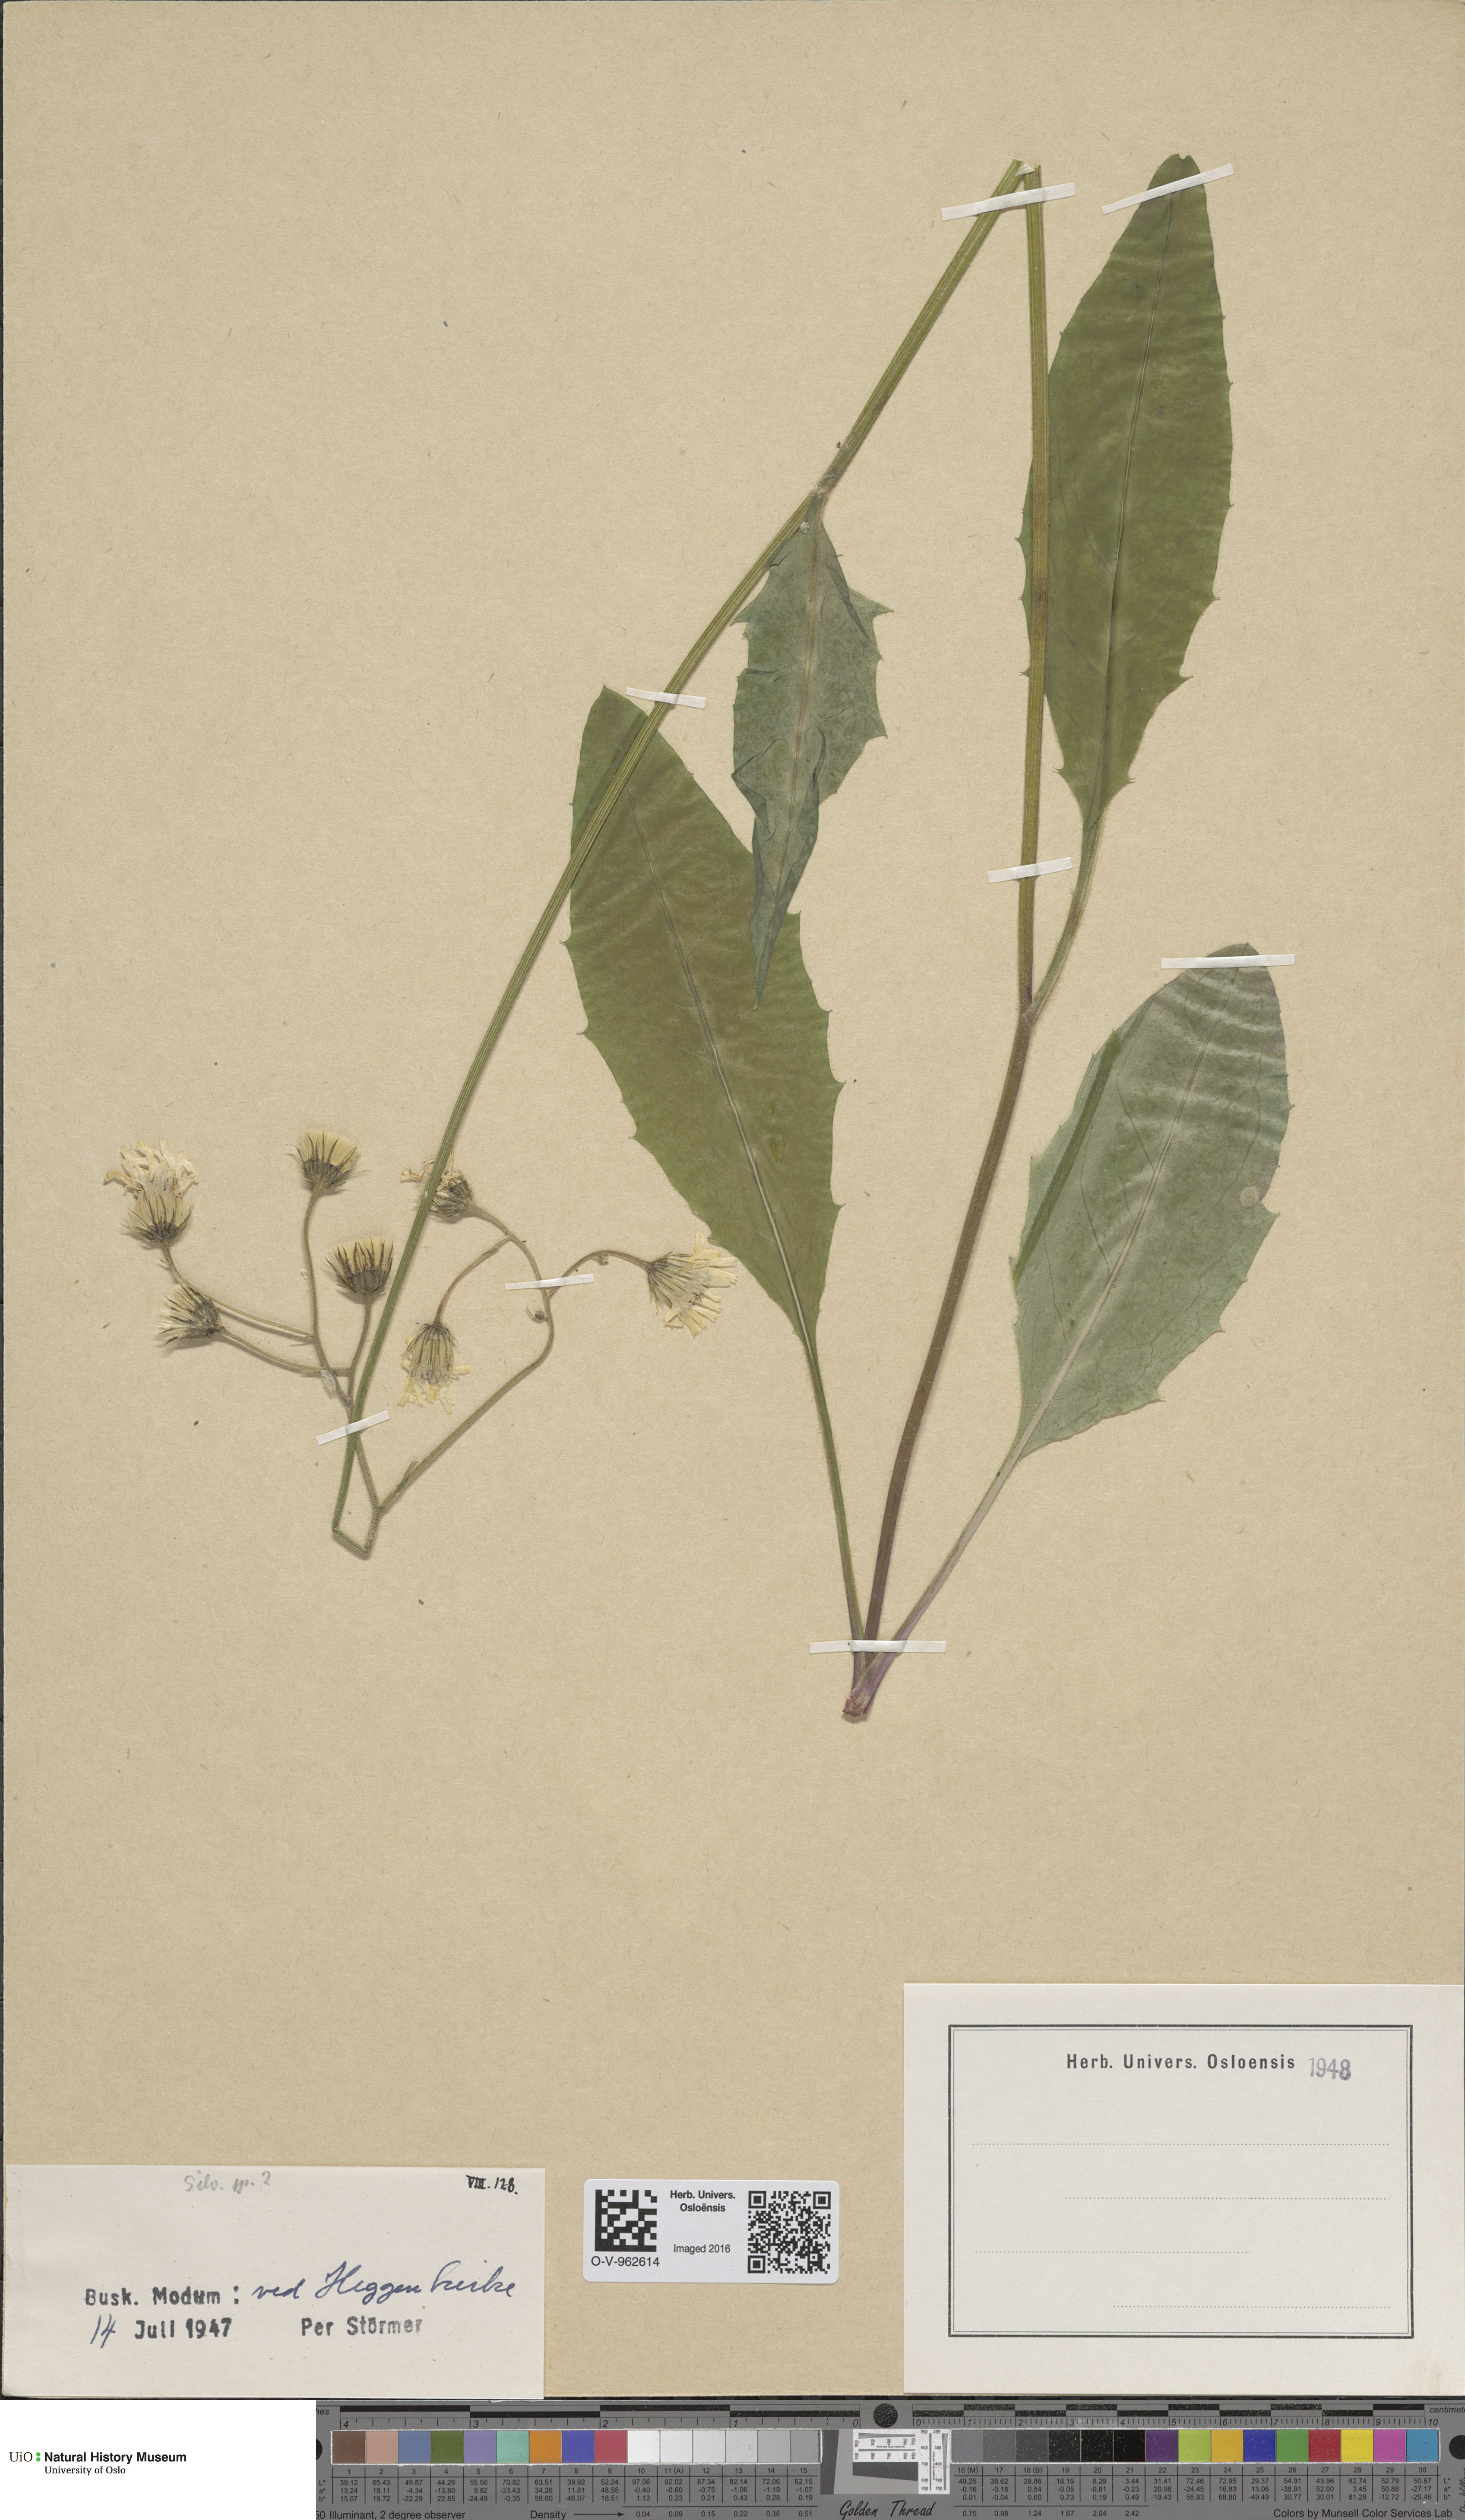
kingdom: Plantae
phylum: Tracheophyta
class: Magnoliopsida
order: Asterales
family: Asteraceae
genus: Hieracium
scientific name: Hieracium
